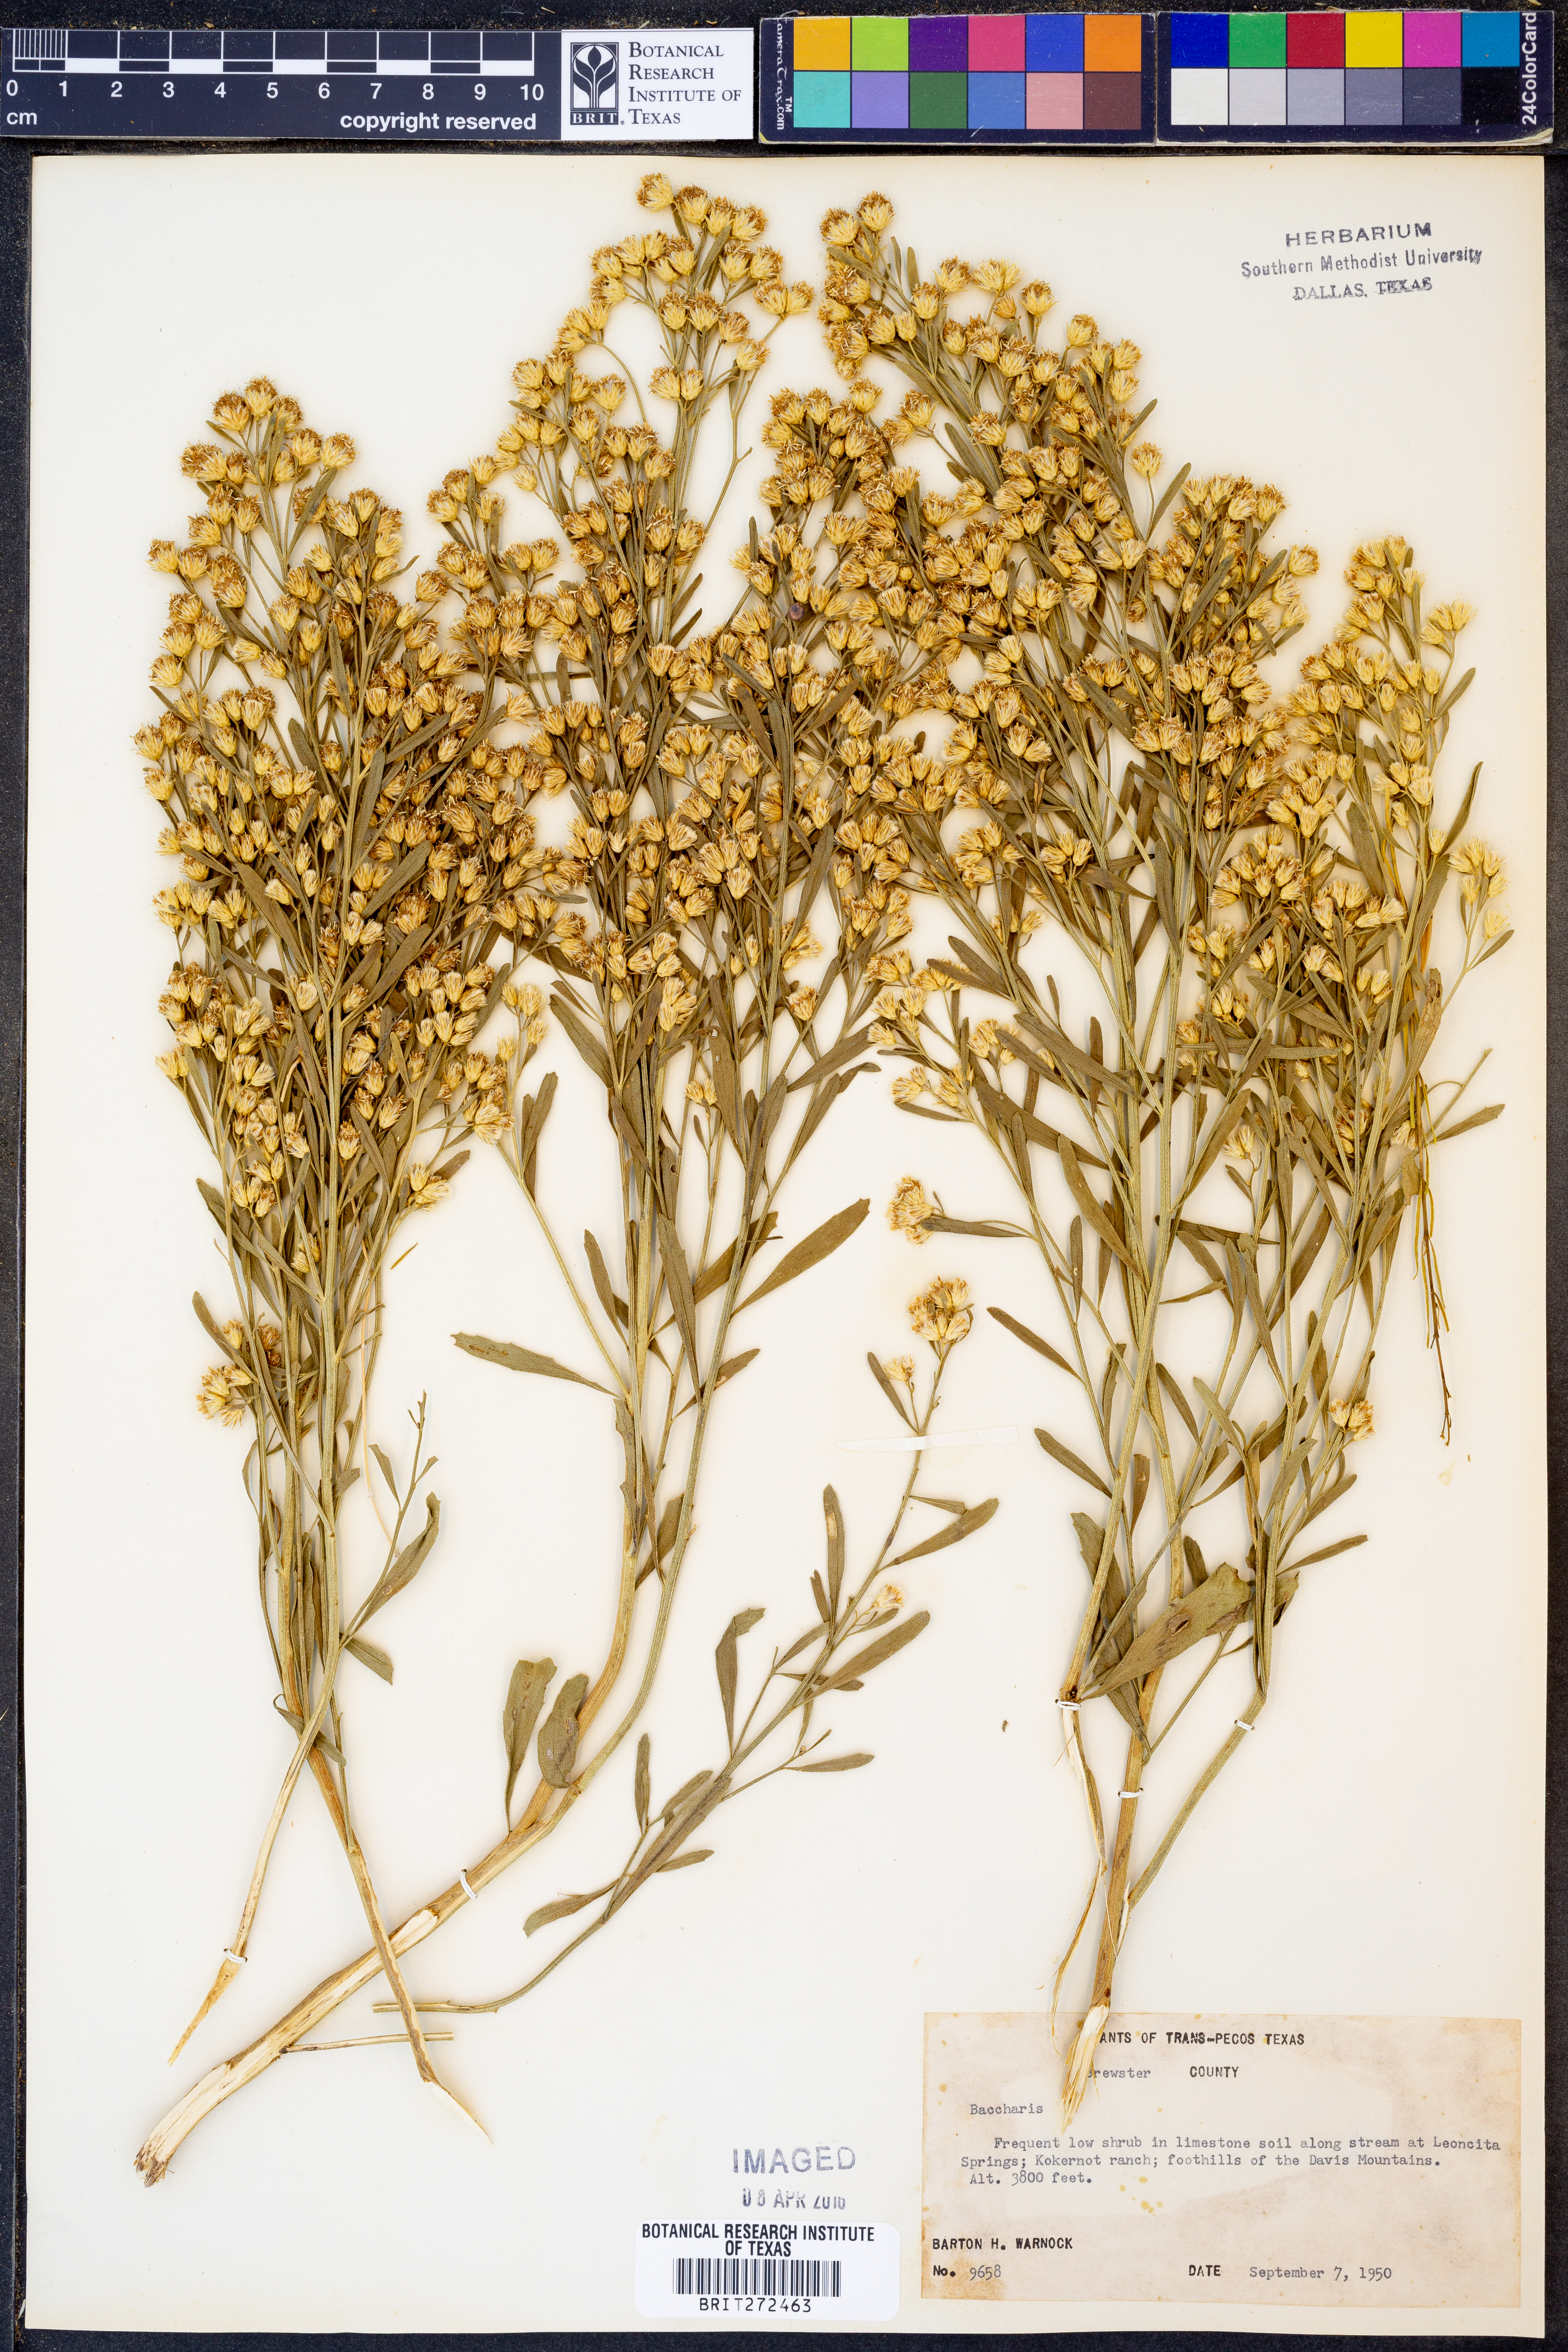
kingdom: Plantae
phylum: Tracheophyta
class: Magnoliopsida
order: Asterales
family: Asteraceae
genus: Baccharis
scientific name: Baccharis
